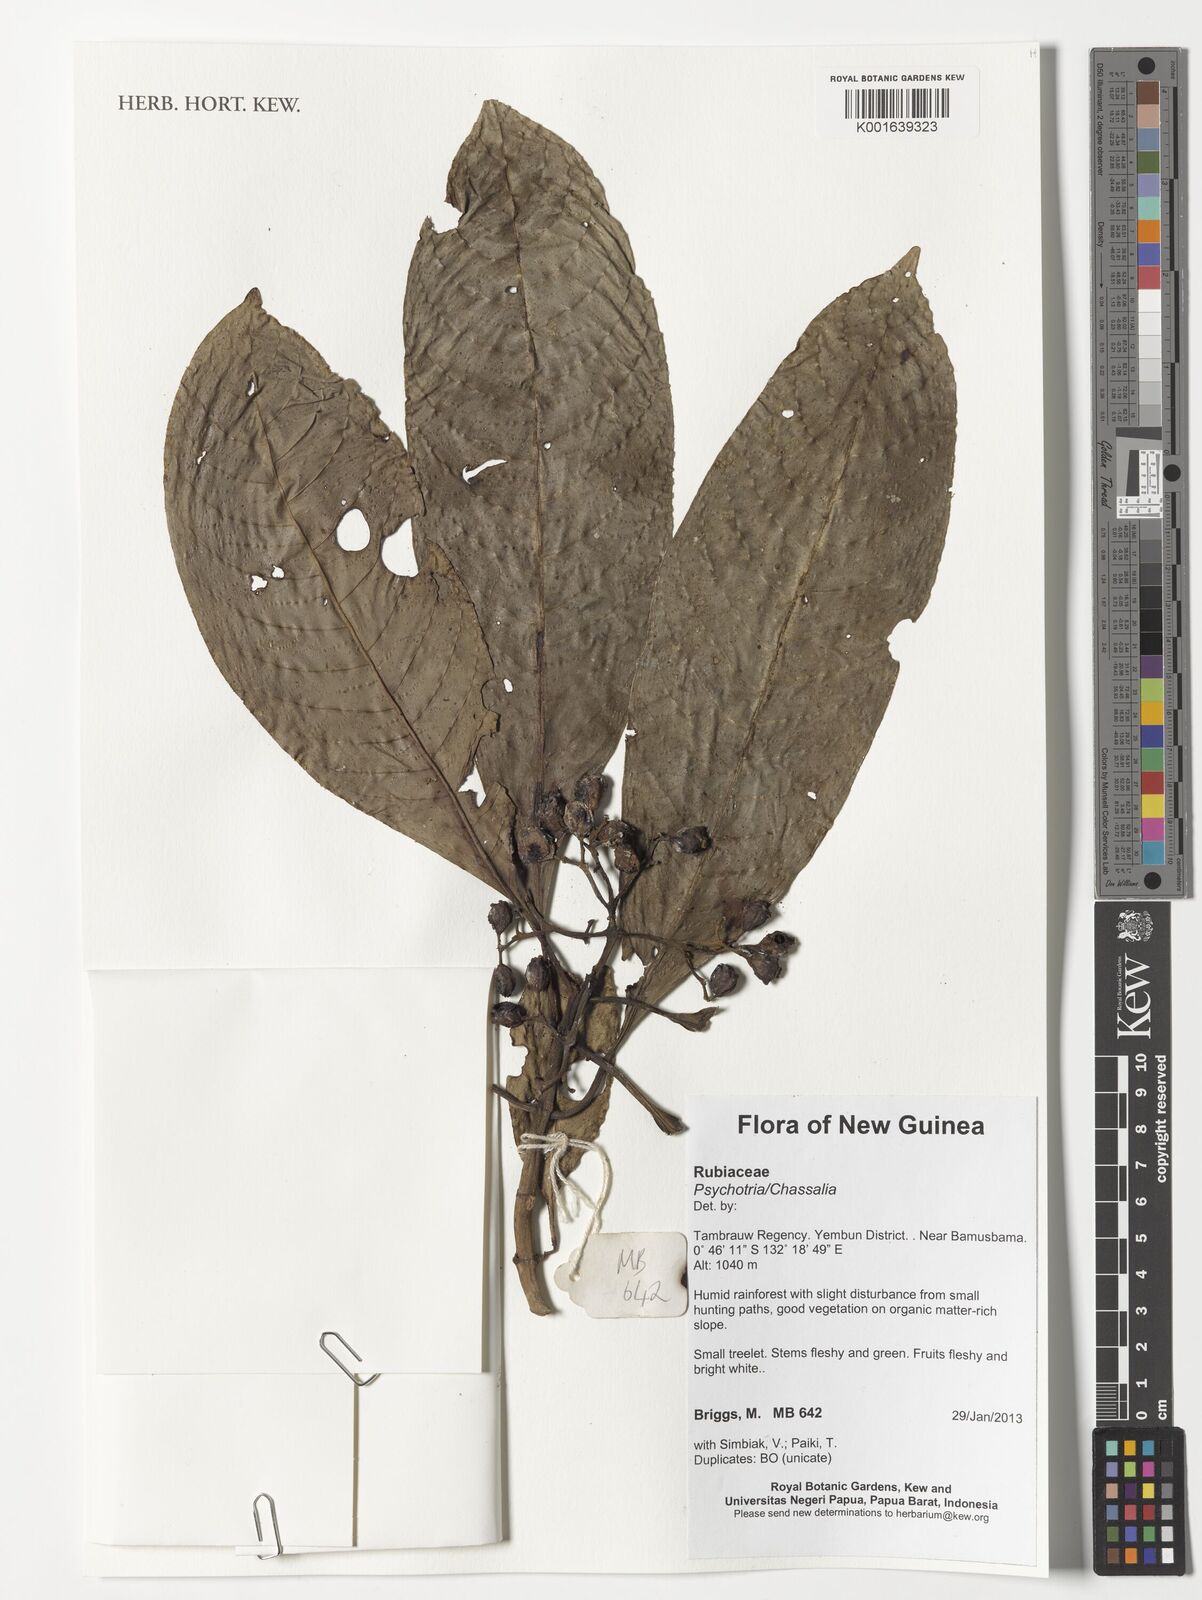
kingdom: Plantae
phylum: Tracheophyta
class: Magnoliopsida
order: Gentianales
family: Rubiaceae
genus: Psychotria
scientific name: Psychotria
